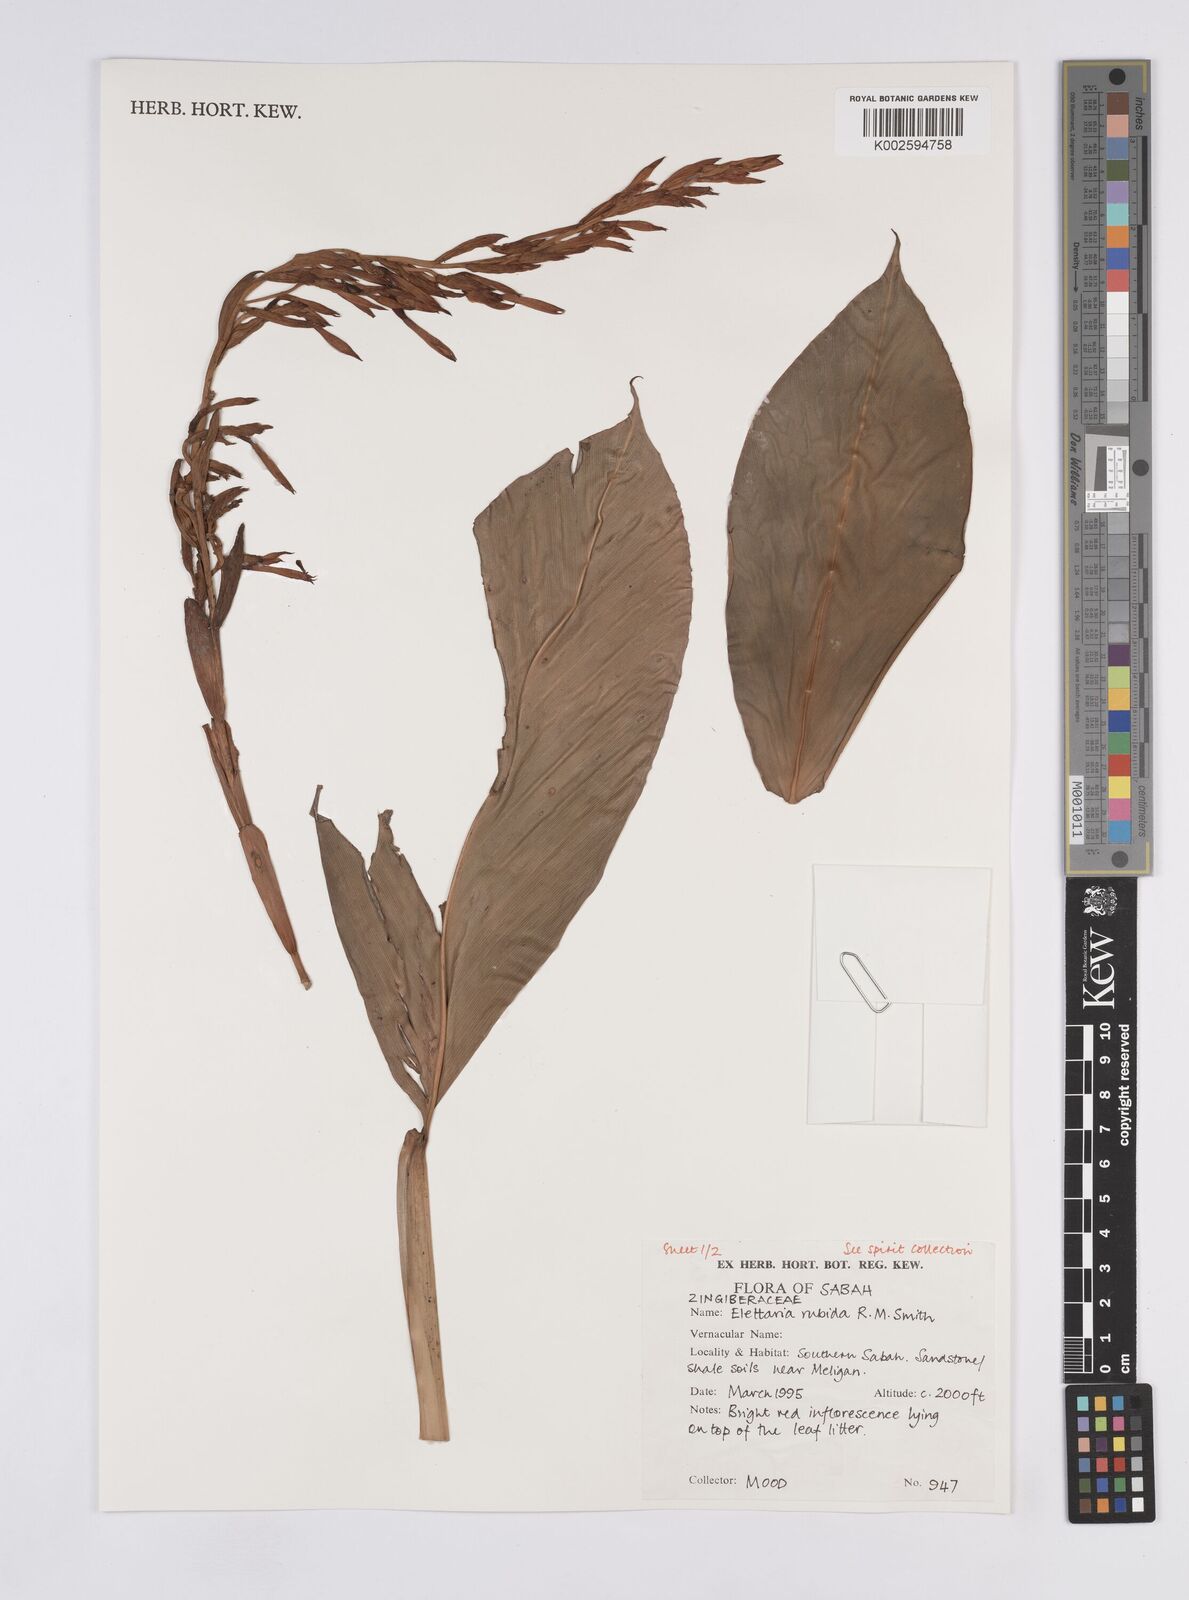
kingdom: Plantae
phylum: Tracheophyta
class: Liliopsida
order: Zingiberales
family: Zingiberaceae
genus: Sulettaria
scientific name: Sulettaria rubida
